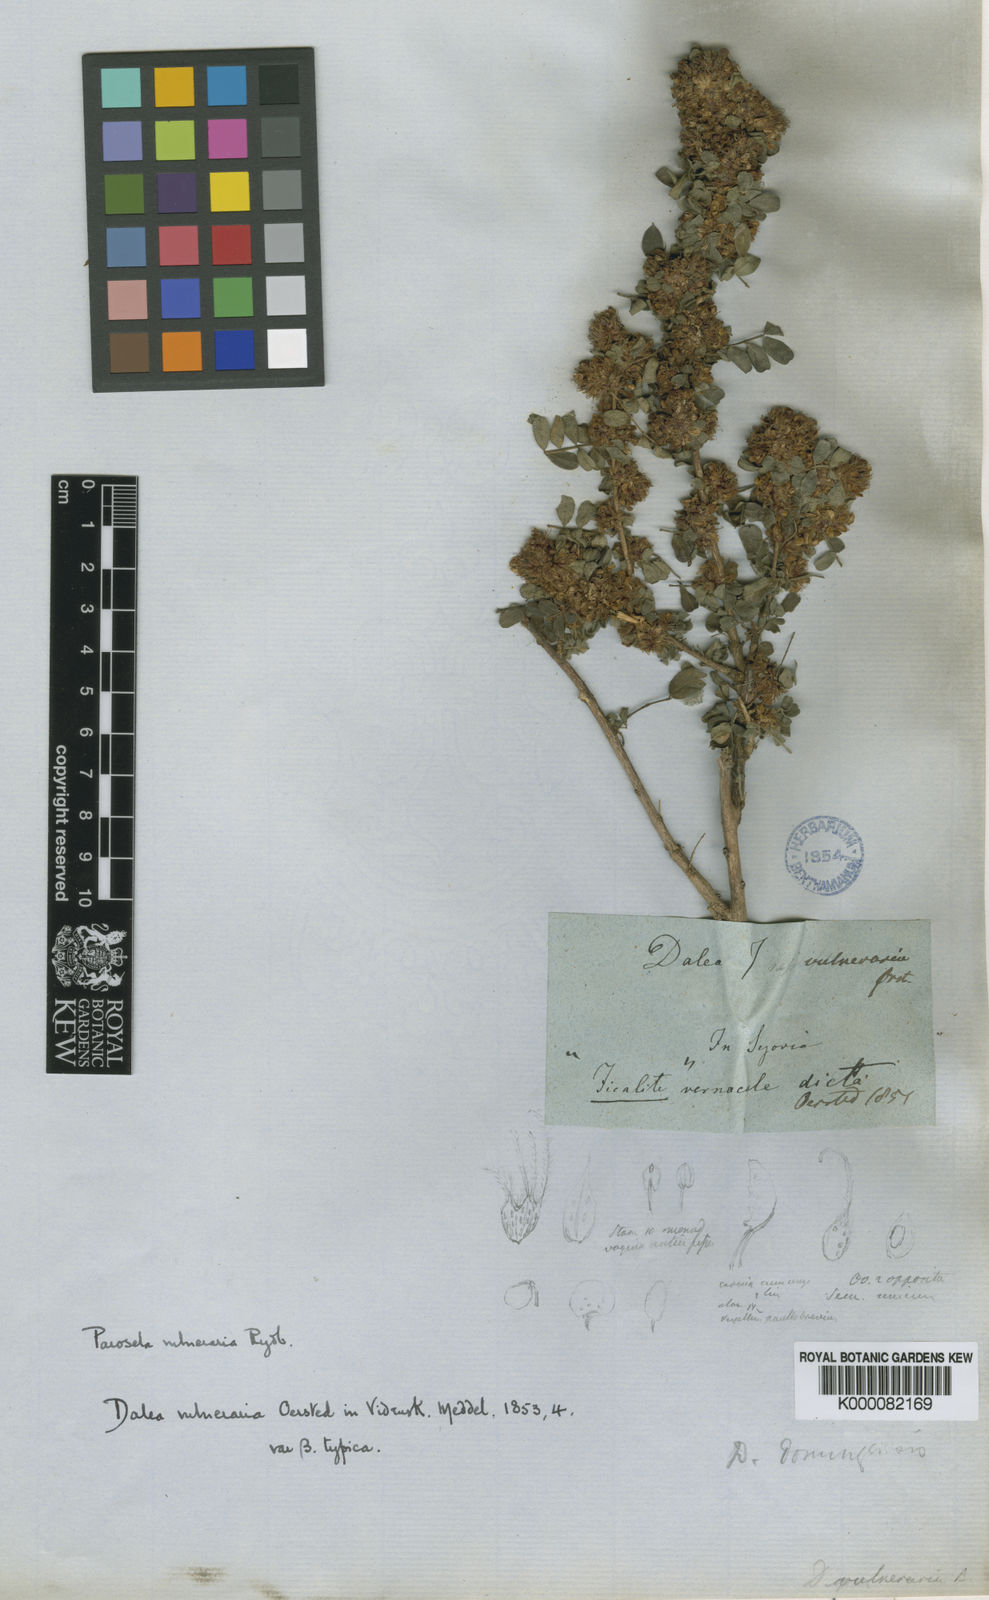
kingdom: Plantae
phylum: Tracheophyta
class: Magnoliopsida
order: Fabales
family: Fabaceae
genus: Dalea
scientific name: Dalea scandens
